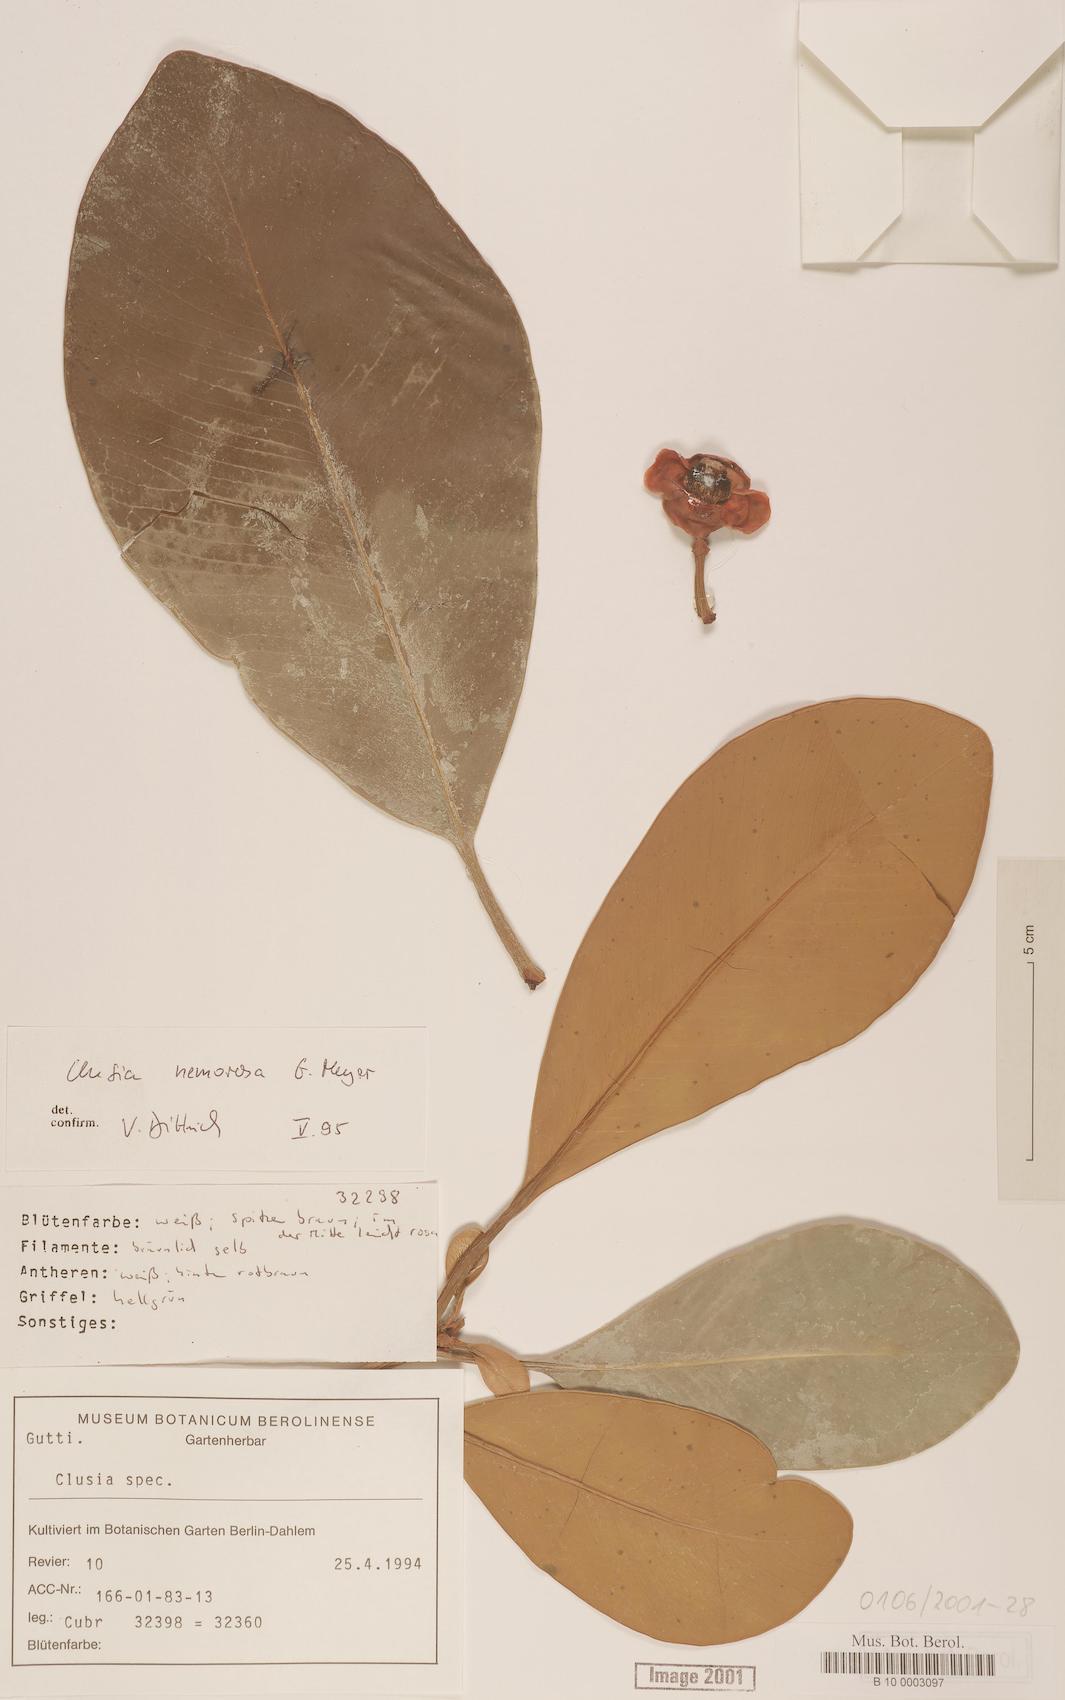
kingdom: Plantae
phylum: Tracheophyta
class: Magnoliopsida
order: Malpighiales
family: Clusiaceae
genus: Chrysochlamys
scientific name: Chrysochlamys
